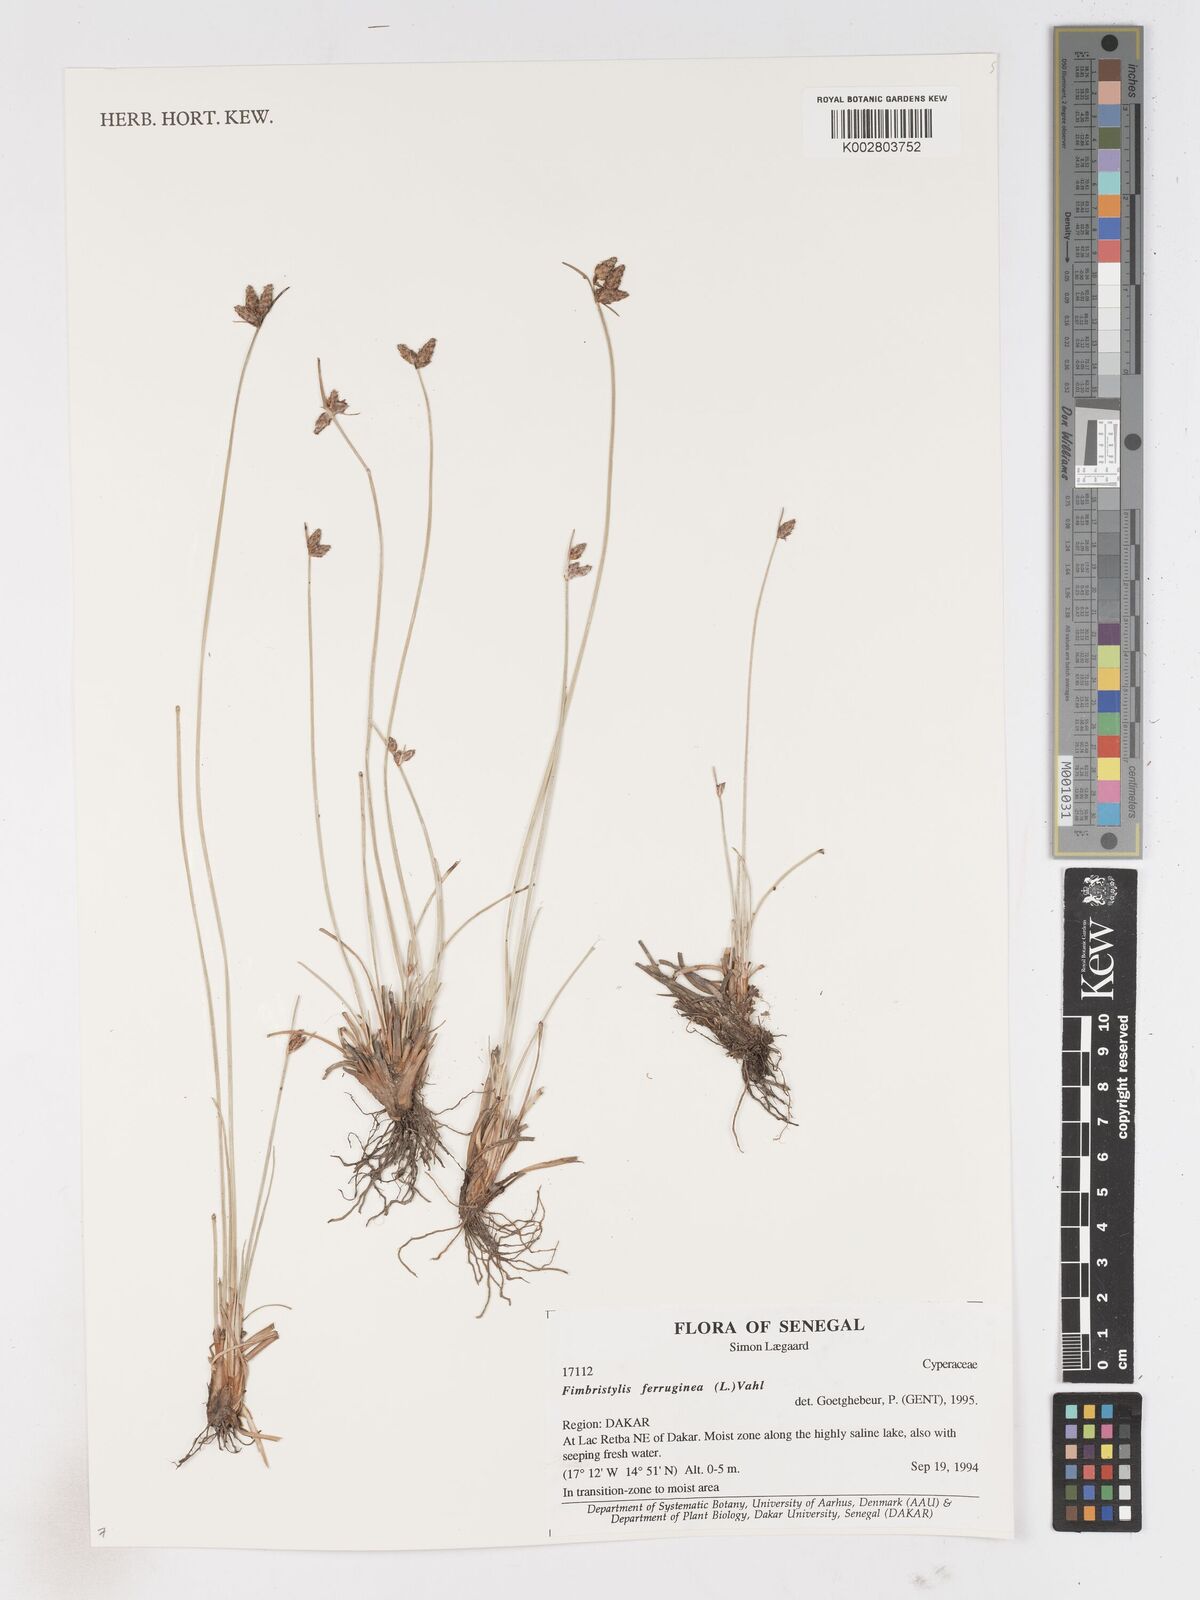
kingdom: Plantae
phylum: Tracheophyta
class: Liliopsida
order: Poales
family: Cyperaceae
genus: Fimbristylis
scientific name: Fimbristylis ferruginea
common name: West indian fimbry
